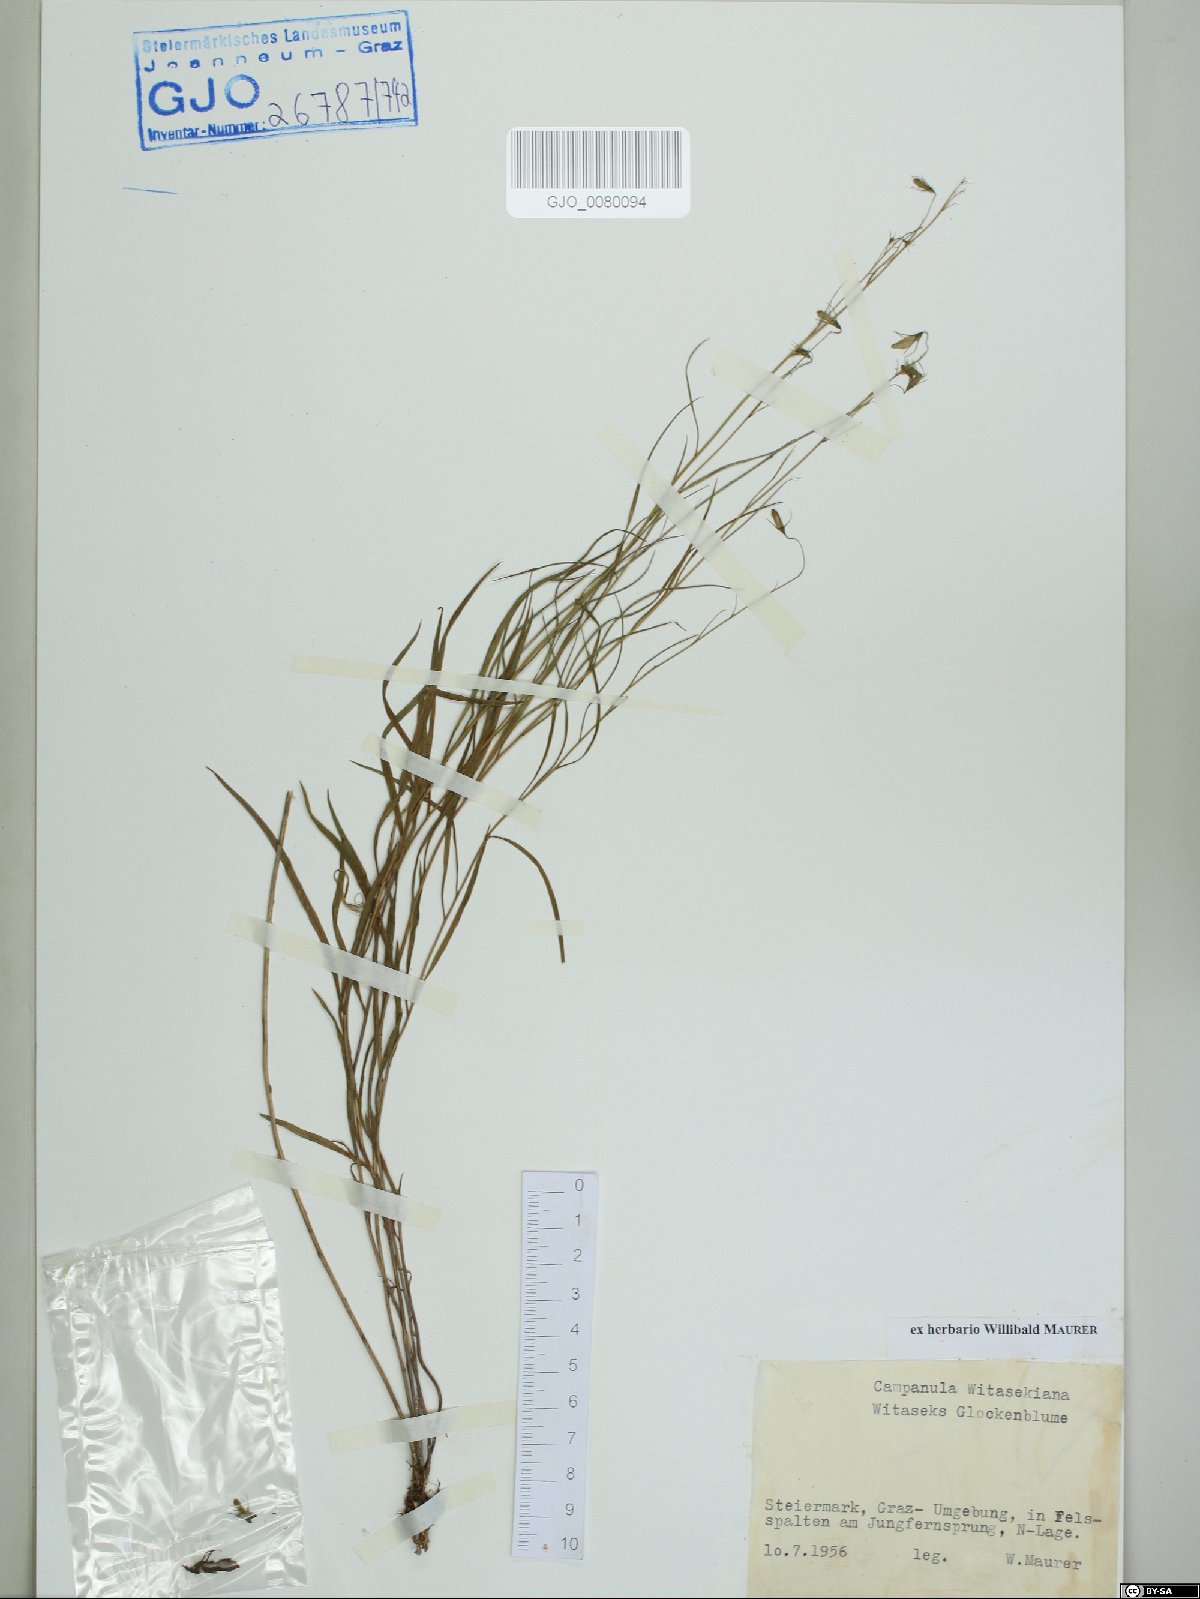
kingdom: Plantae
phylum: Tracheophyta
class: Magnoliopsida
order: Asterales
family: Campanulaceae
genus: Campanula
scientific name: Campanula witasekiana
